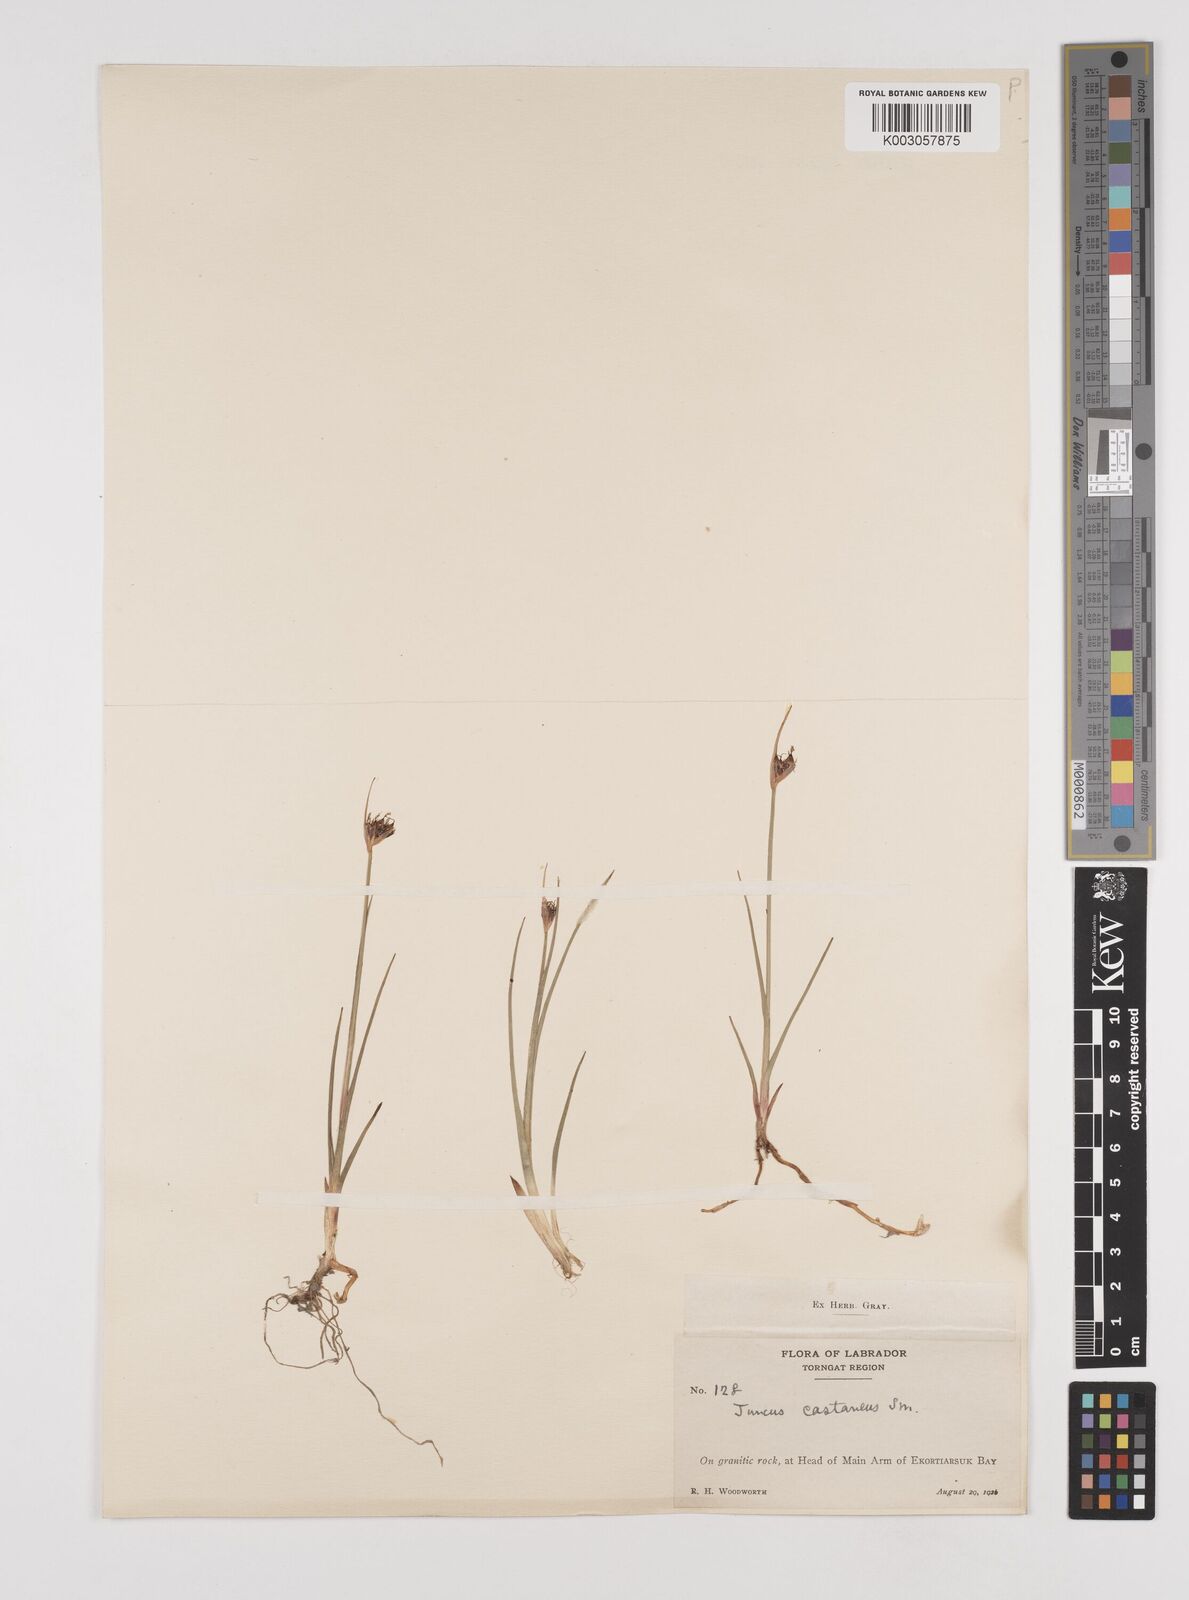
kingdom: Plantae
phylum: Tracheophyta
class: Liliopsida
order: Poales
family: Juncaceae
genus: Juncus
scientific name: Juncus castaneus
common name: Chestnut rush
